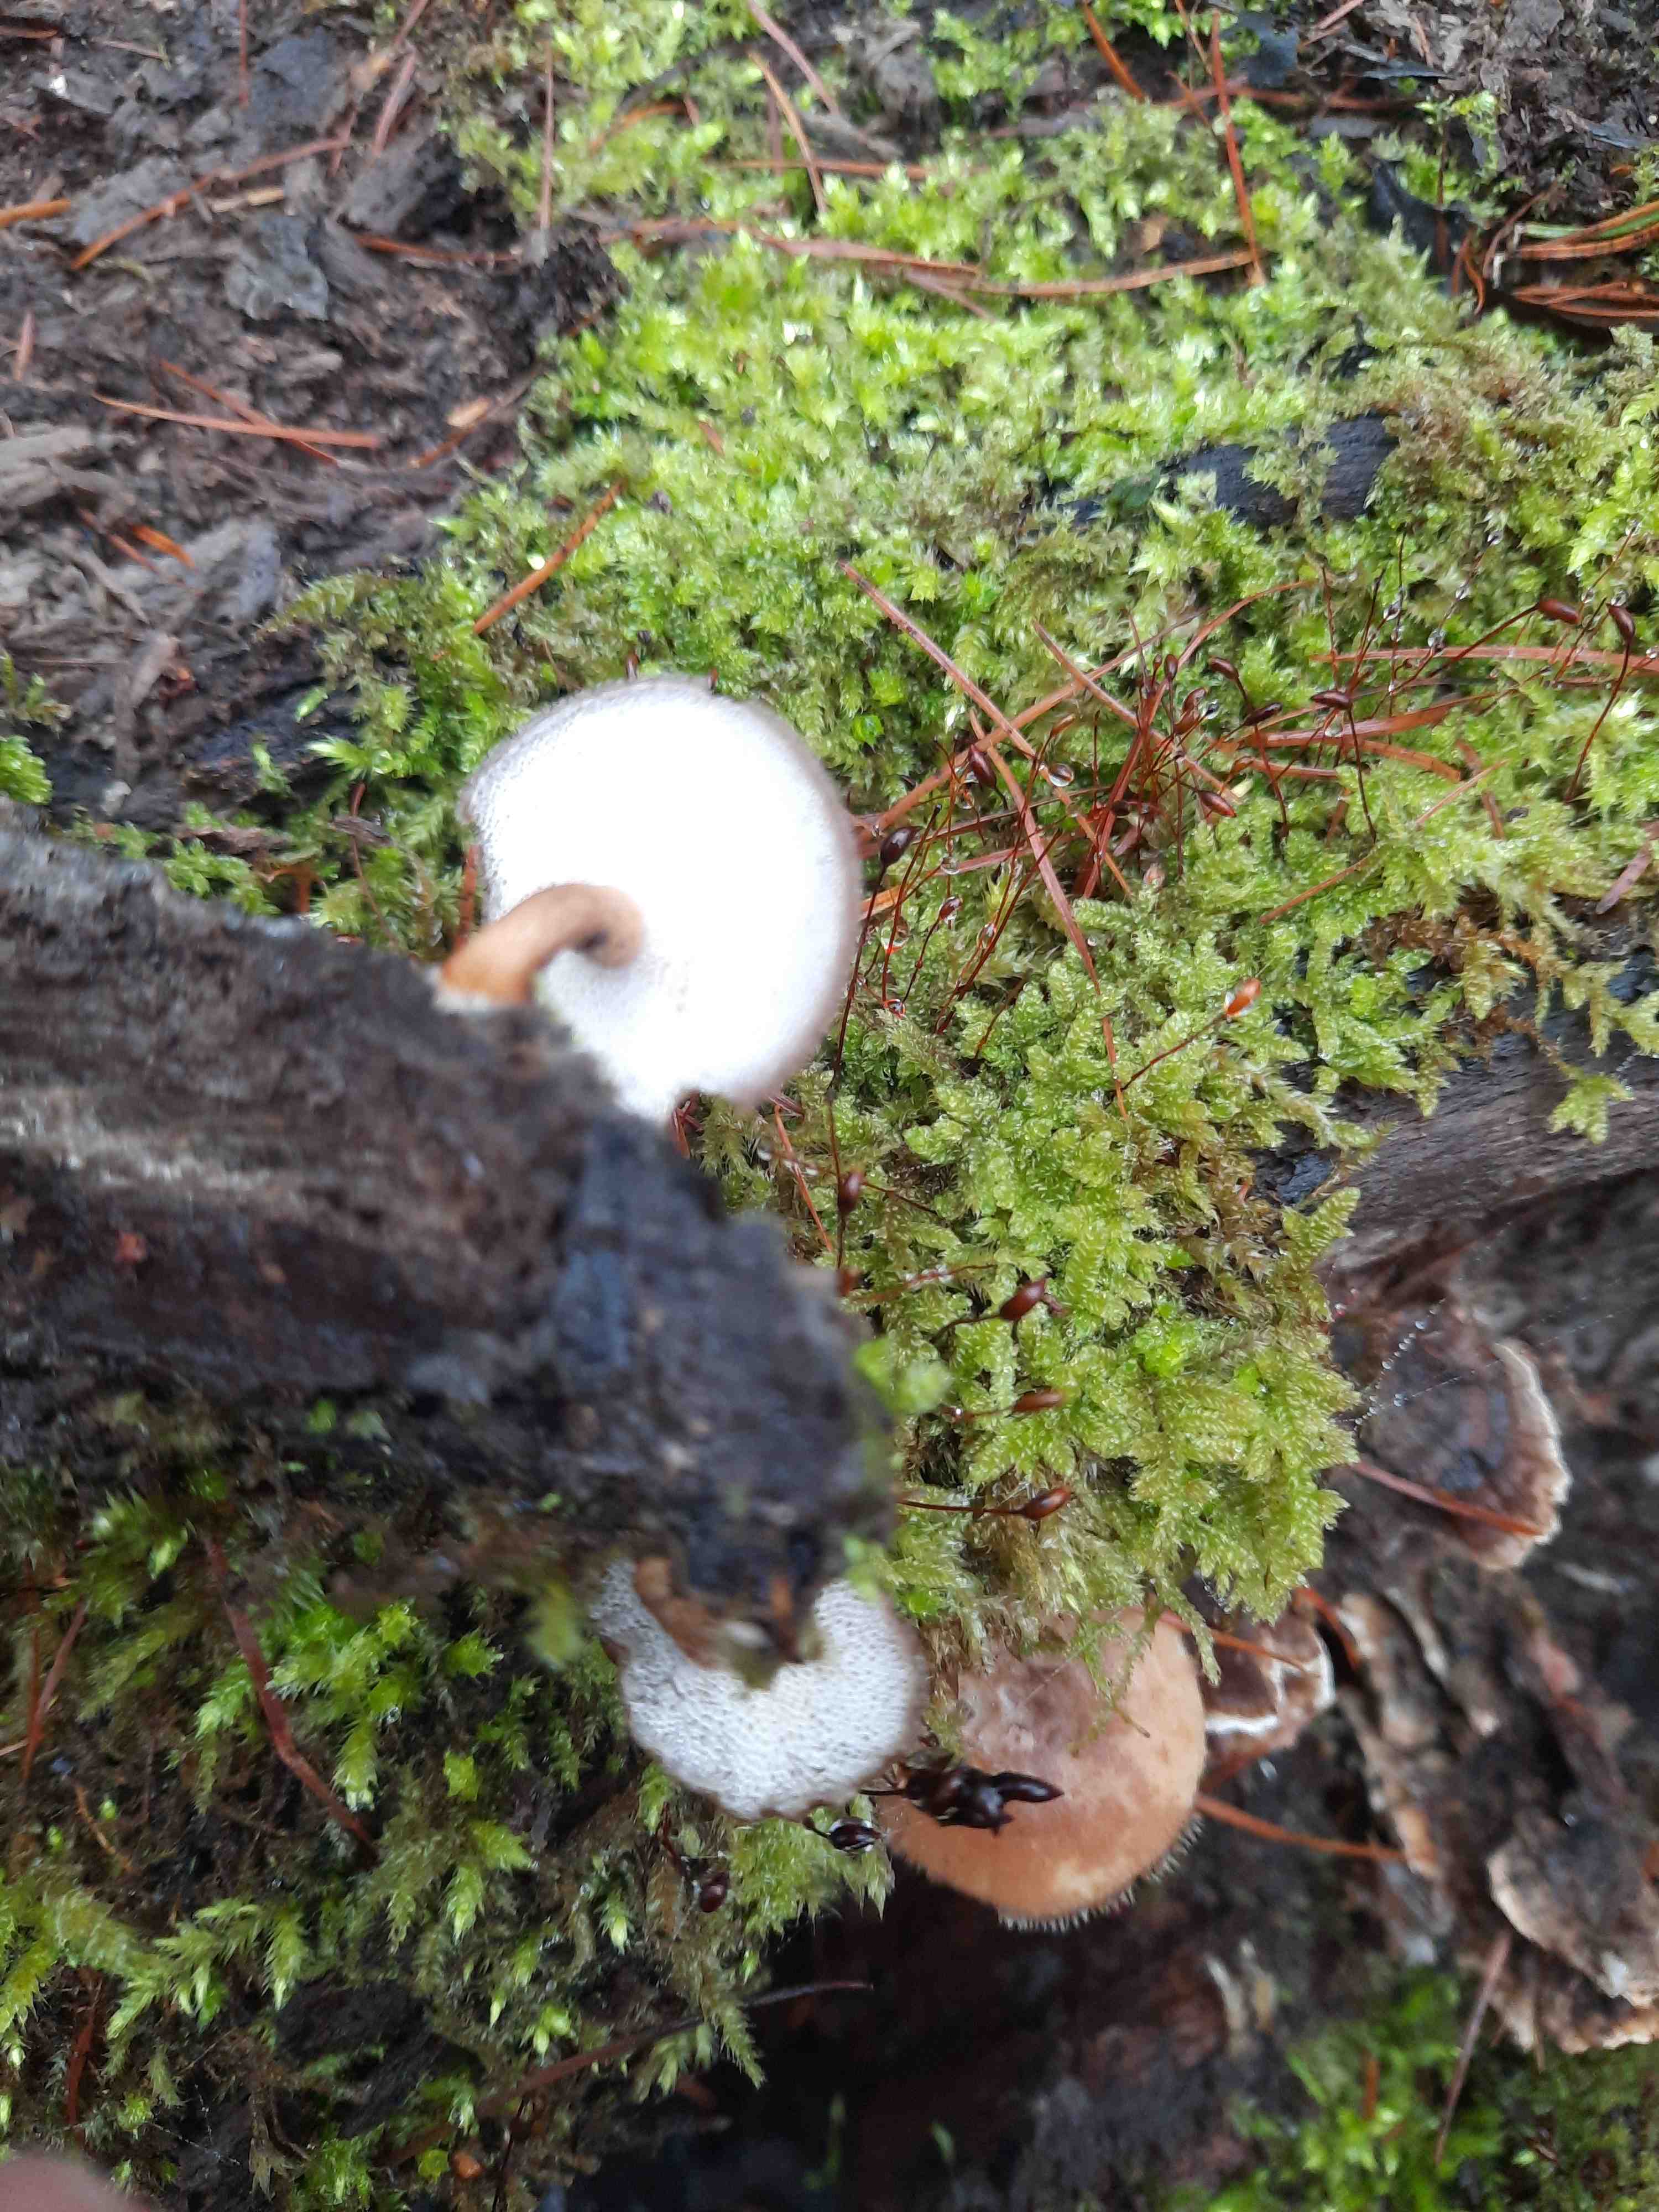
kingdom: Fungi
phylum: Basidiomycota
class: Agaricomycetes
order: Polyporales
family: Polyporaceae
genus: Lentinus
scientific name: Lentinus brumalis
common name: vinter-stilkporesvamp
